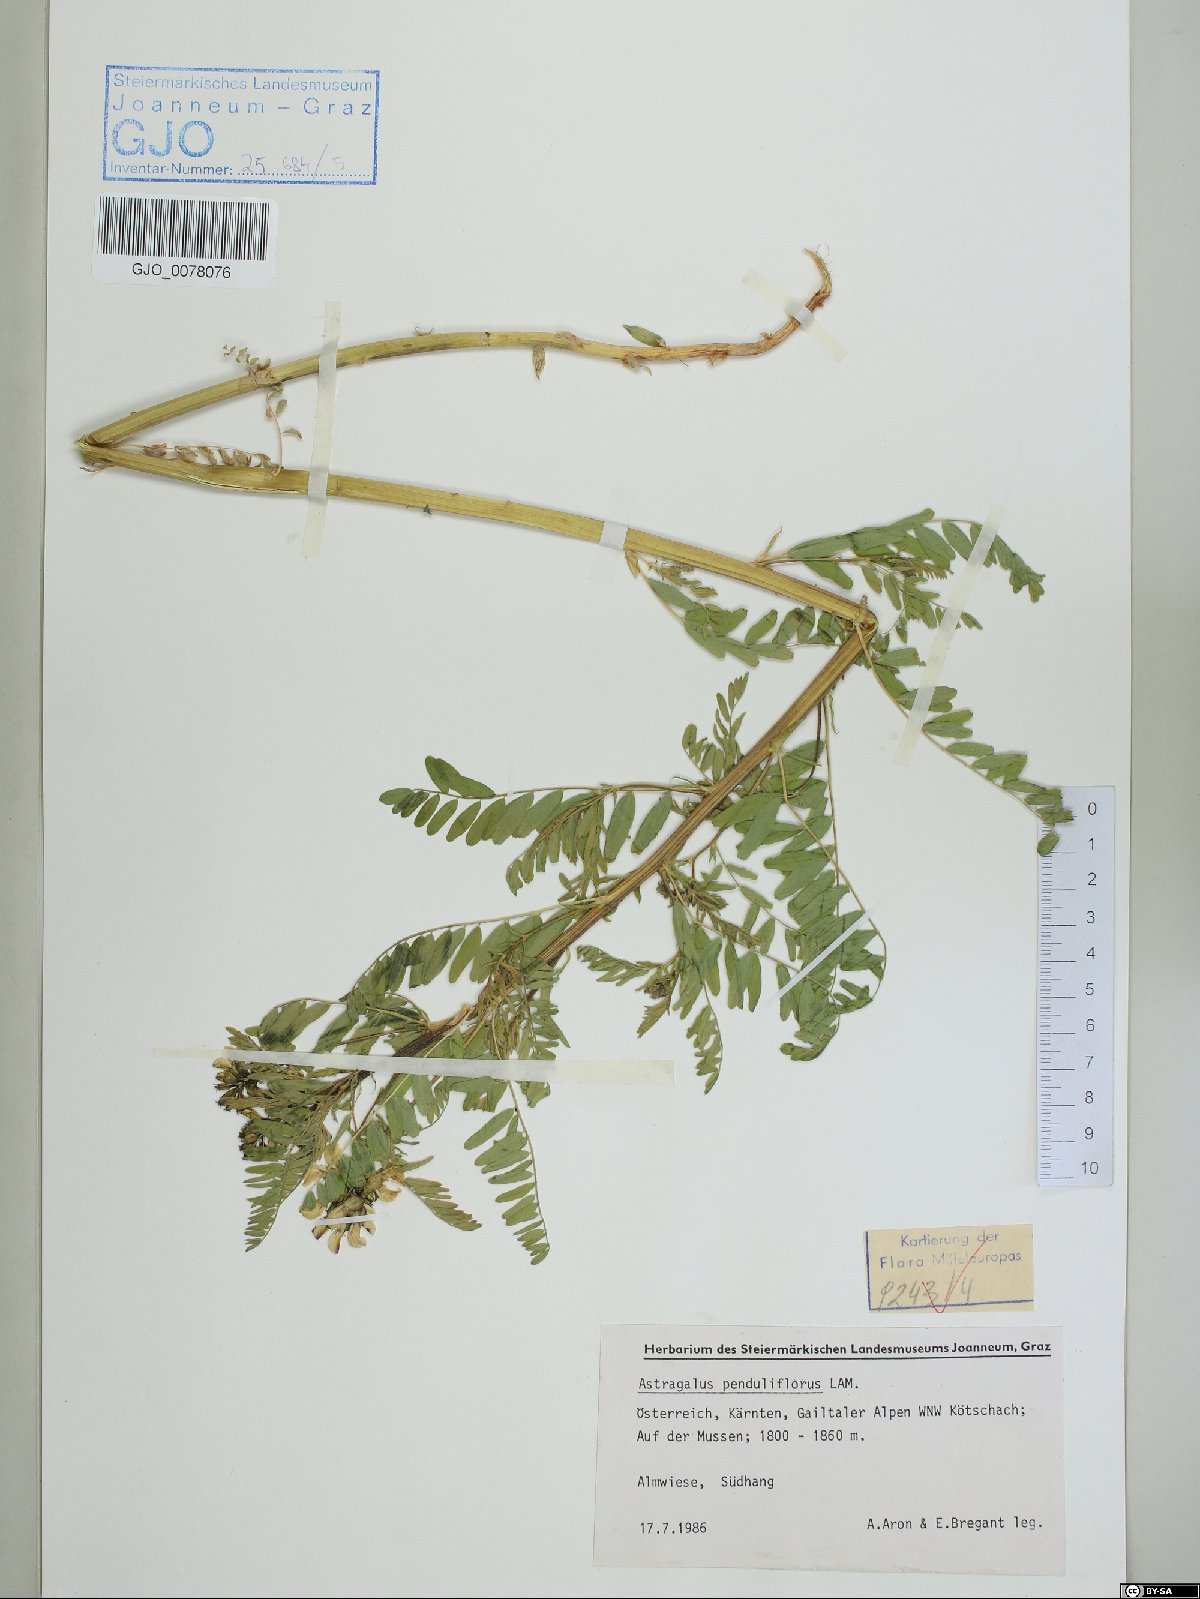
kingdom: Plantae
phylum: Tracheophyta
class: Magnoliopsida
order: Fabales
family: Fabaceae
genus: Astragalus
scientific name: Astragalus penduliflorus
